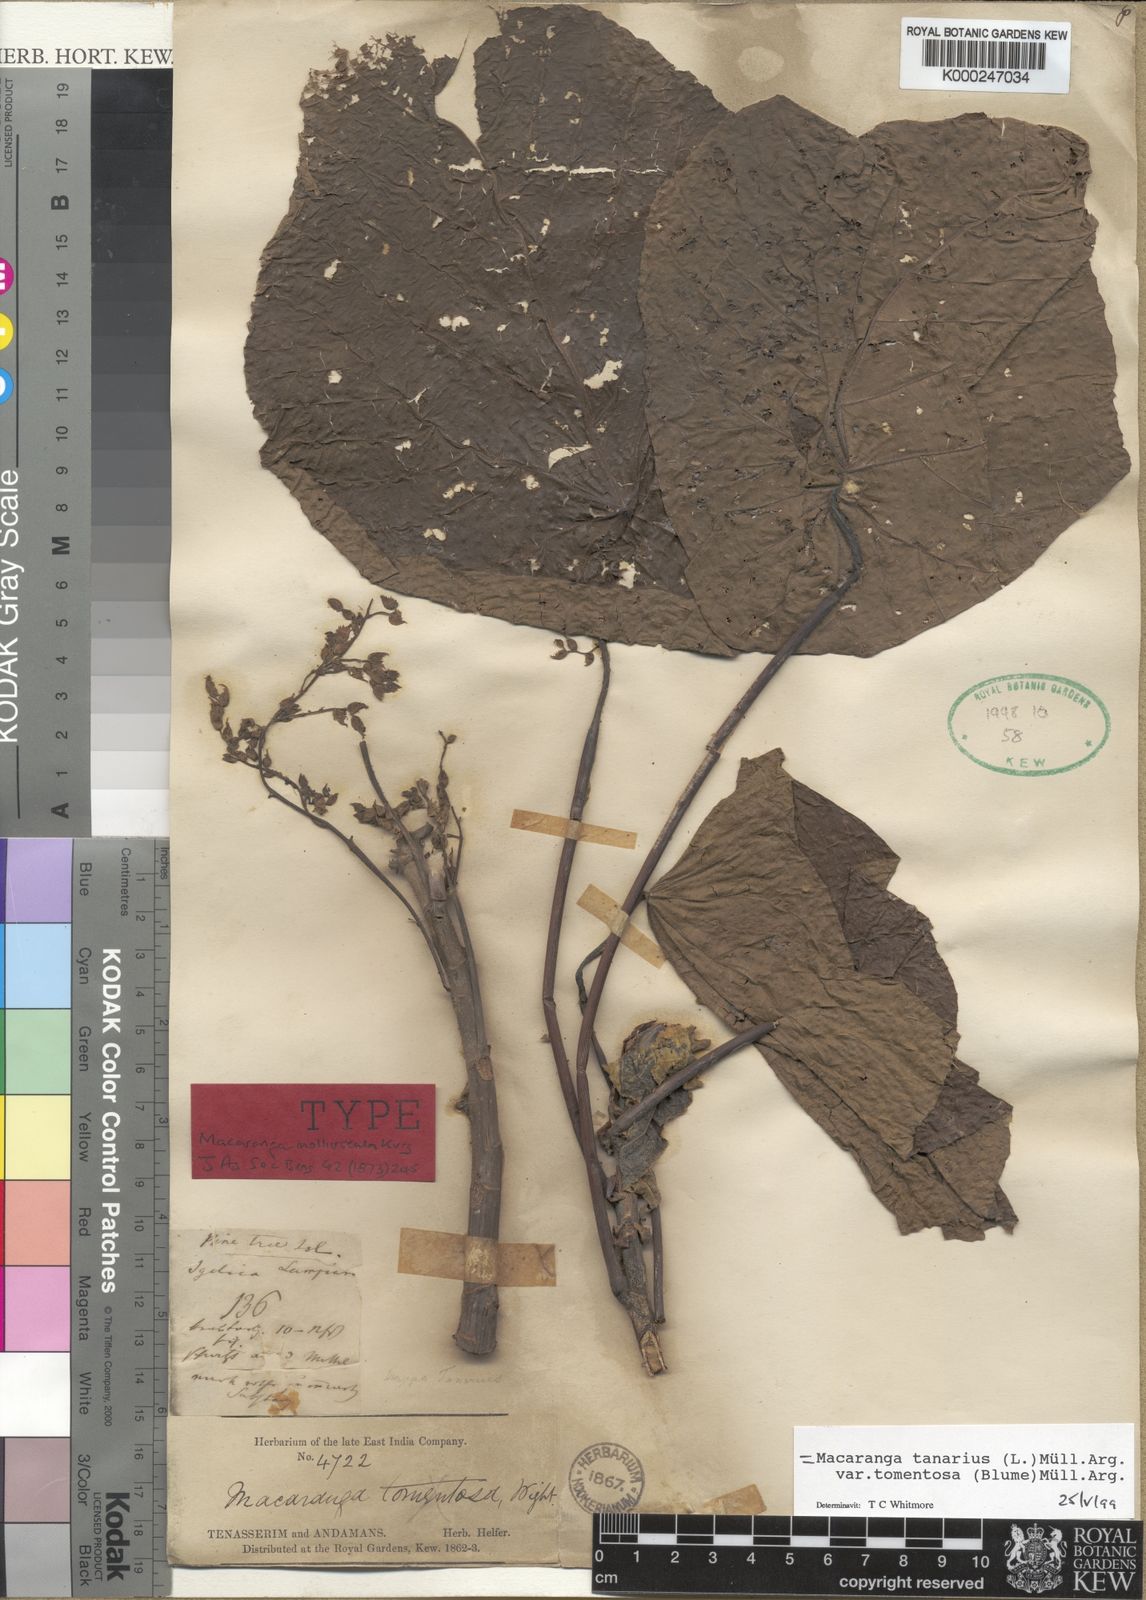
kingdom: Plantae
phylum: Tracheophyta
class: Magnoliopsida
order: Malpighiales
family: Euphorbiaceae
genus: Macaranga
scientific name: Macaranga tanarius
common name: Parasol leaf tree
